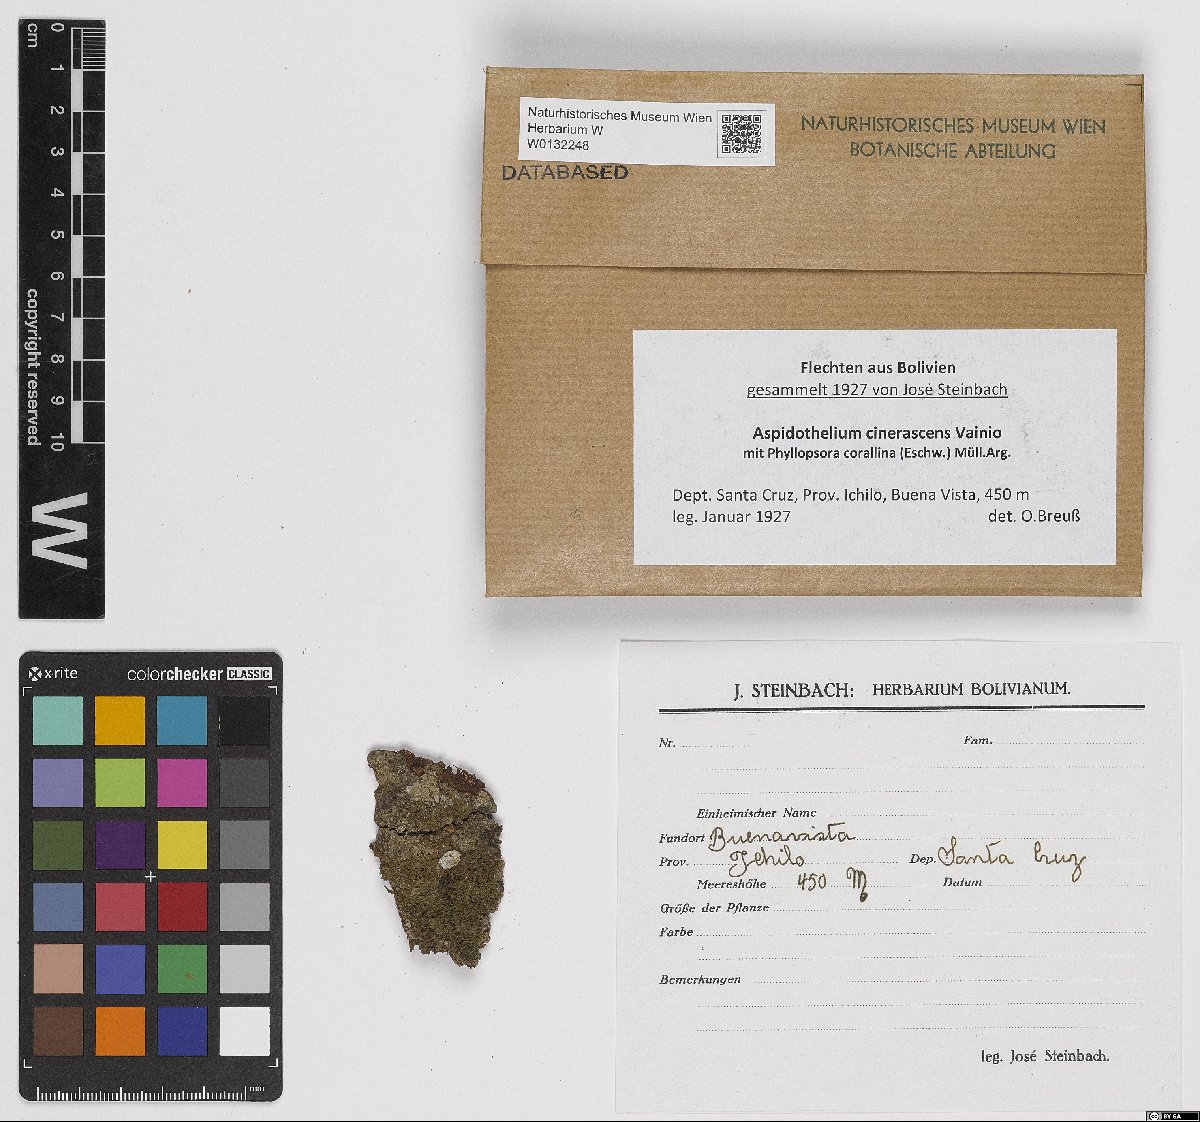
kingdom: Fungi
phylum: Ascomycota
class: Lecanoromycetes
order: Ostropales
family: Thelenellaceae
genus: Thelenella
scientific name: Thelenella cinerascens
